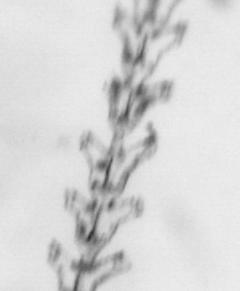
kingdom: Animalia
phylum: Cnidaria
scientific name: Cnidaria
